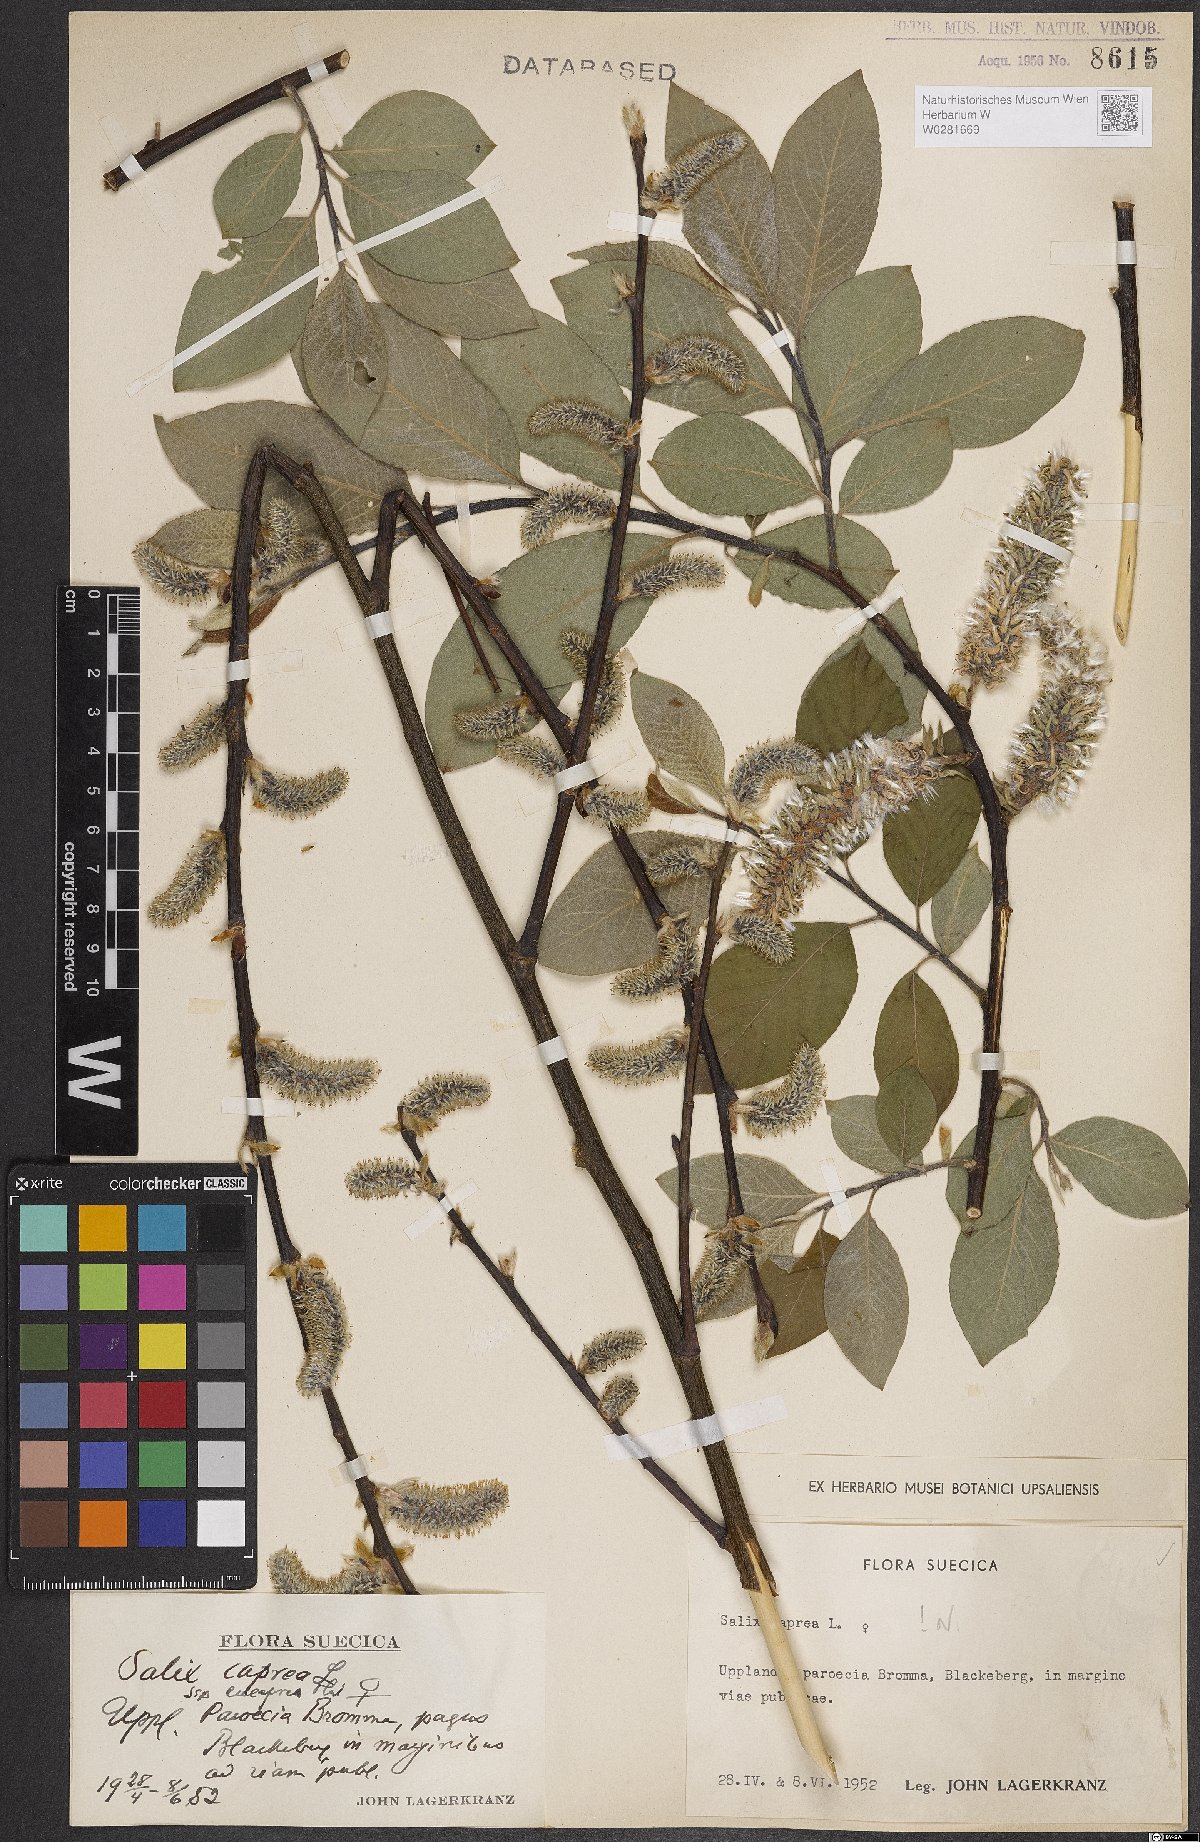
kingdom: Plantae
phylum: Tracheophyta
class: Magnoliopsida
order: Malpighiales
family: Salicaceae
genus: Salix
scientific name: Salix caprea
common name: Goat willow
